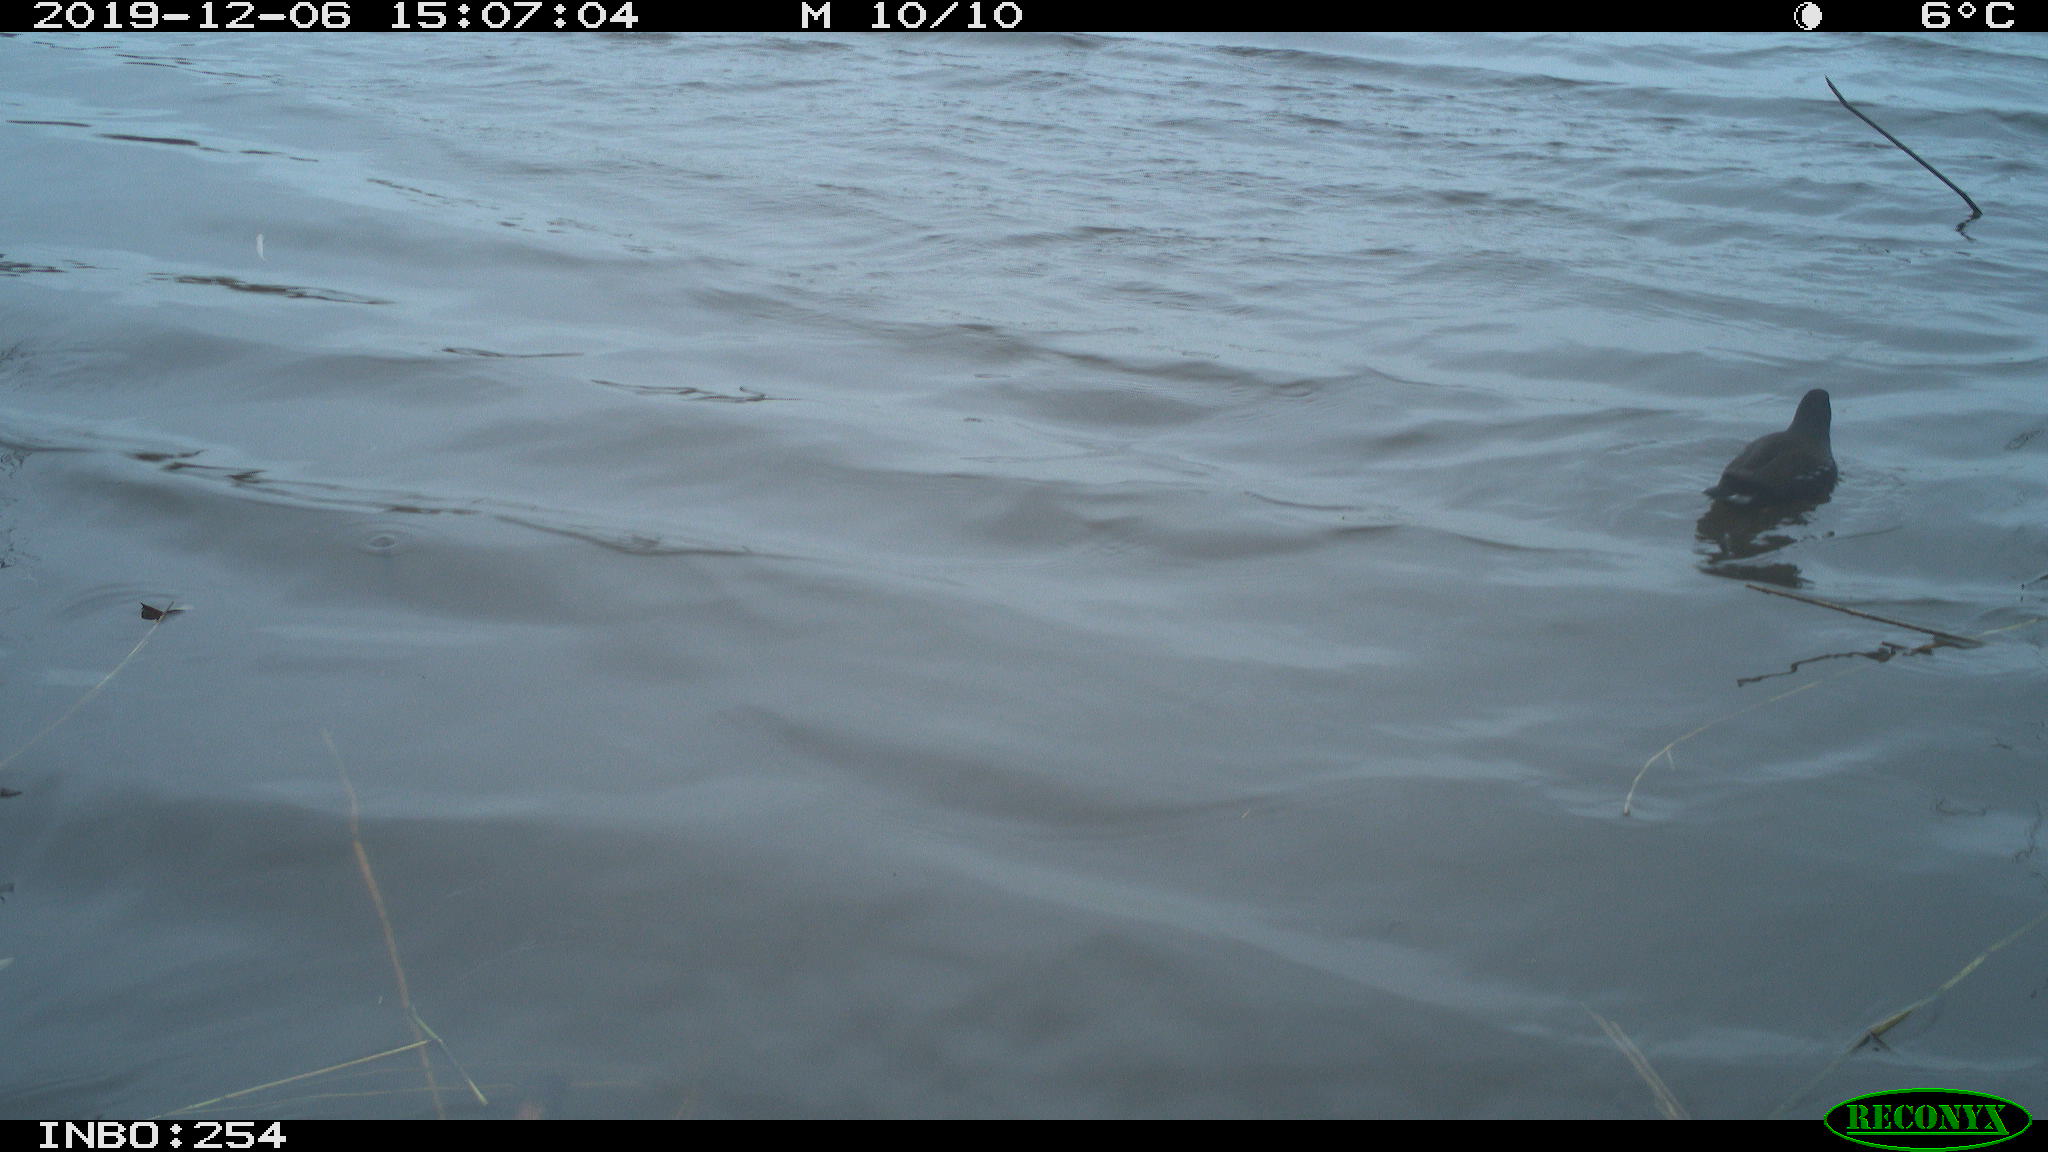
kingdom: Animalia
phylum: Chordata
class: Aves
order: Gruiformes
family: Rallidae
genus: Gallinula
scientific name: Gallinula chloropus
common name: Common moorhen
